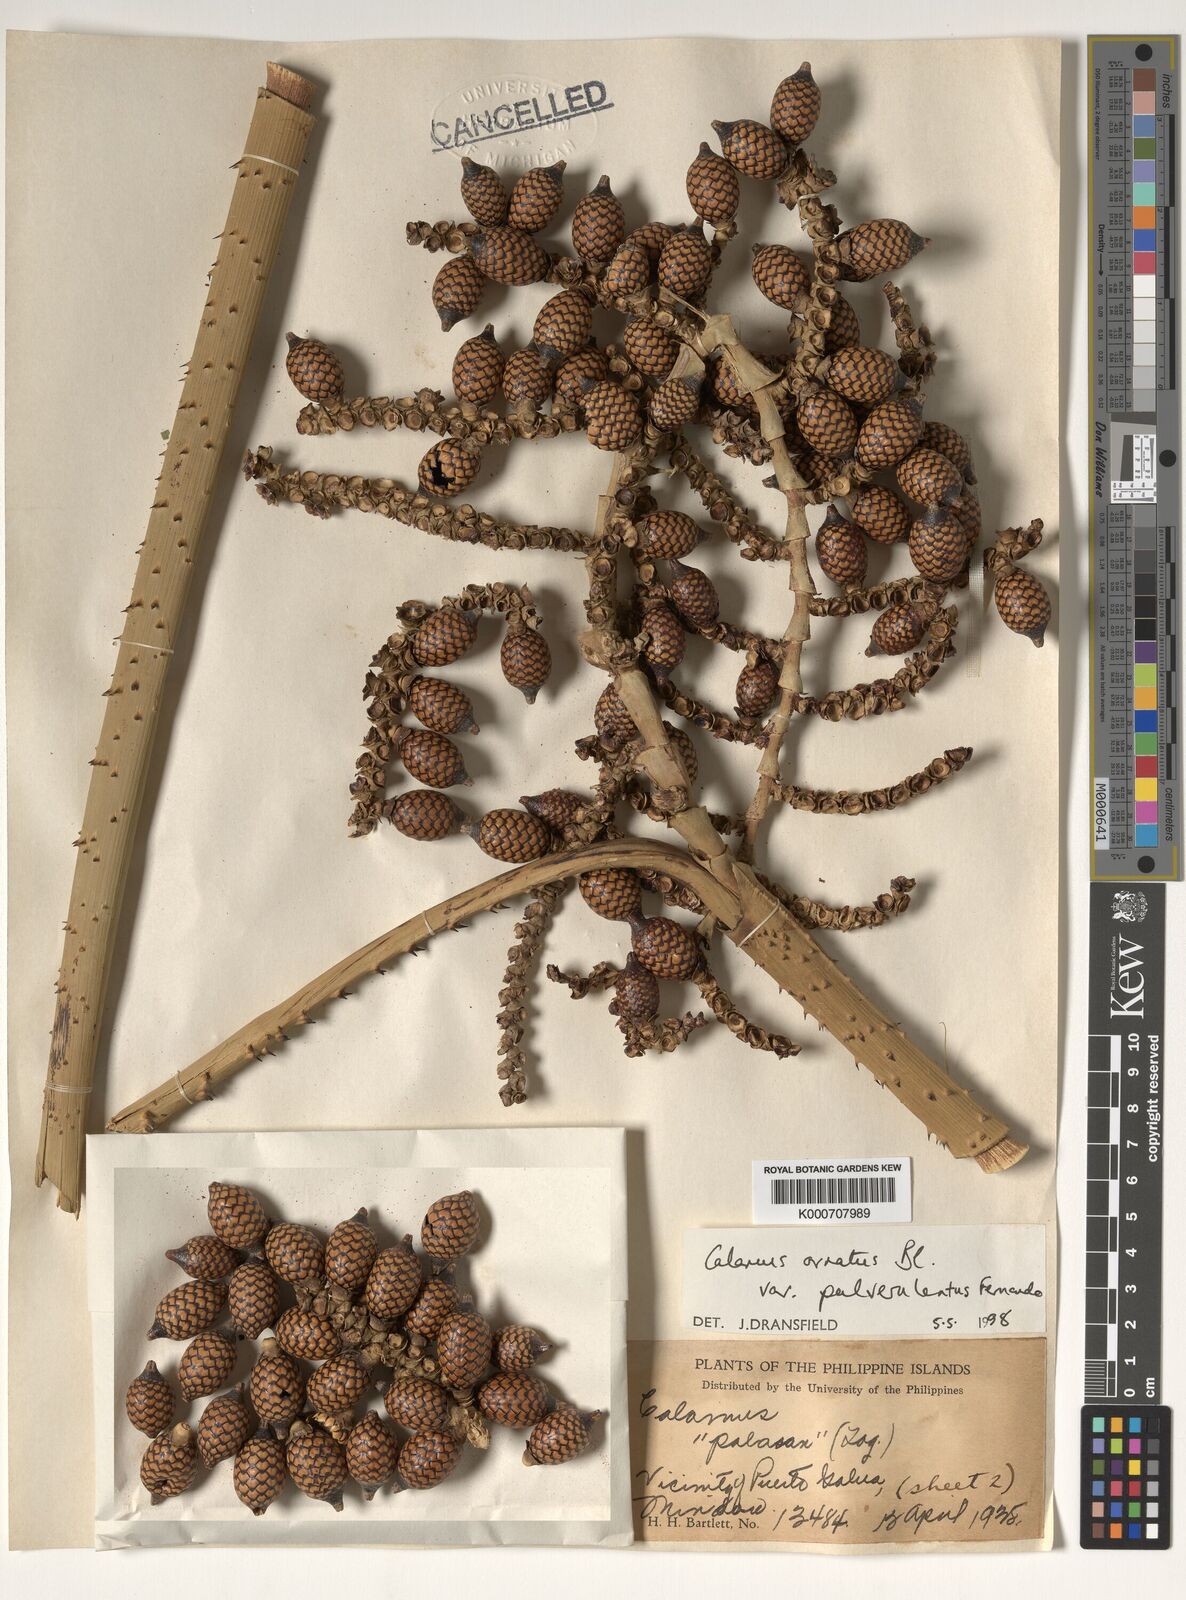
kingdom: Plantae
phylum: Tracheophyta
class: Liliopsida
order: Arecales
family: Arecaceae
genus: Calamus
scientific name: Calamus ornatus
